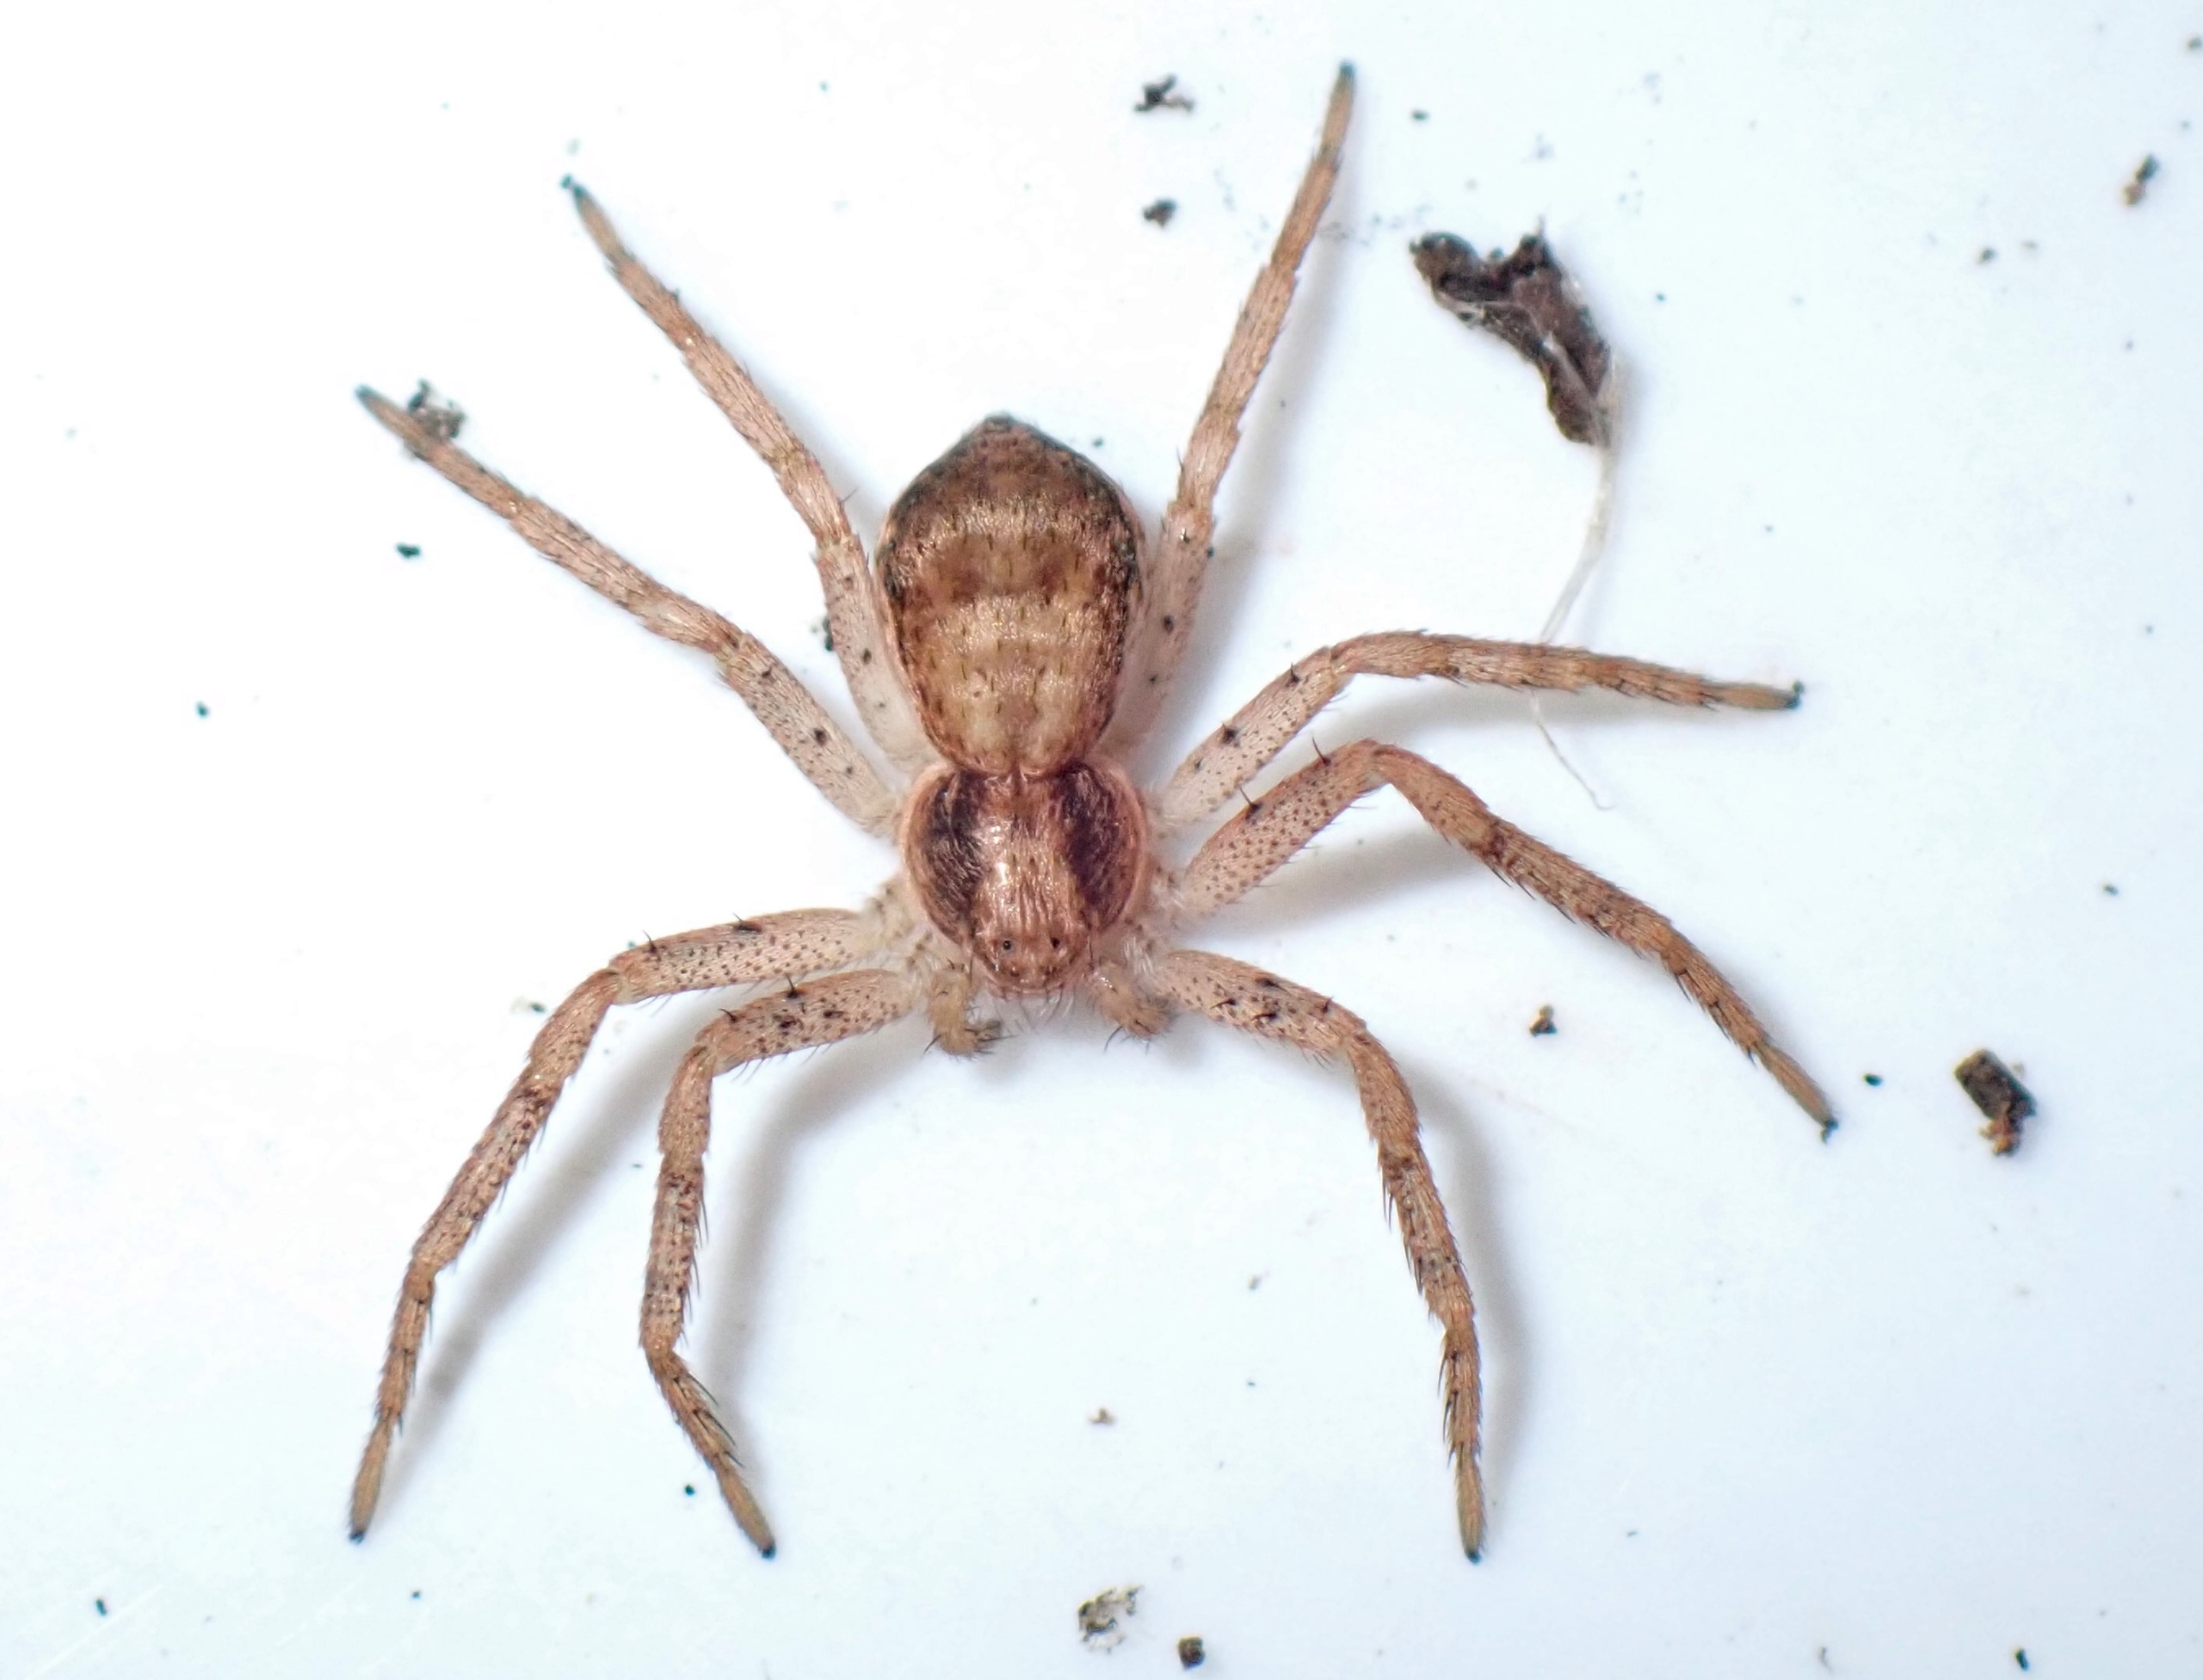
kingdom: Animalia
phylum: Arthropoda
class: Arachnida
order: Araneae
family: Philodromidae
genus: Philodromus
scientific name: Philodromus dispar
